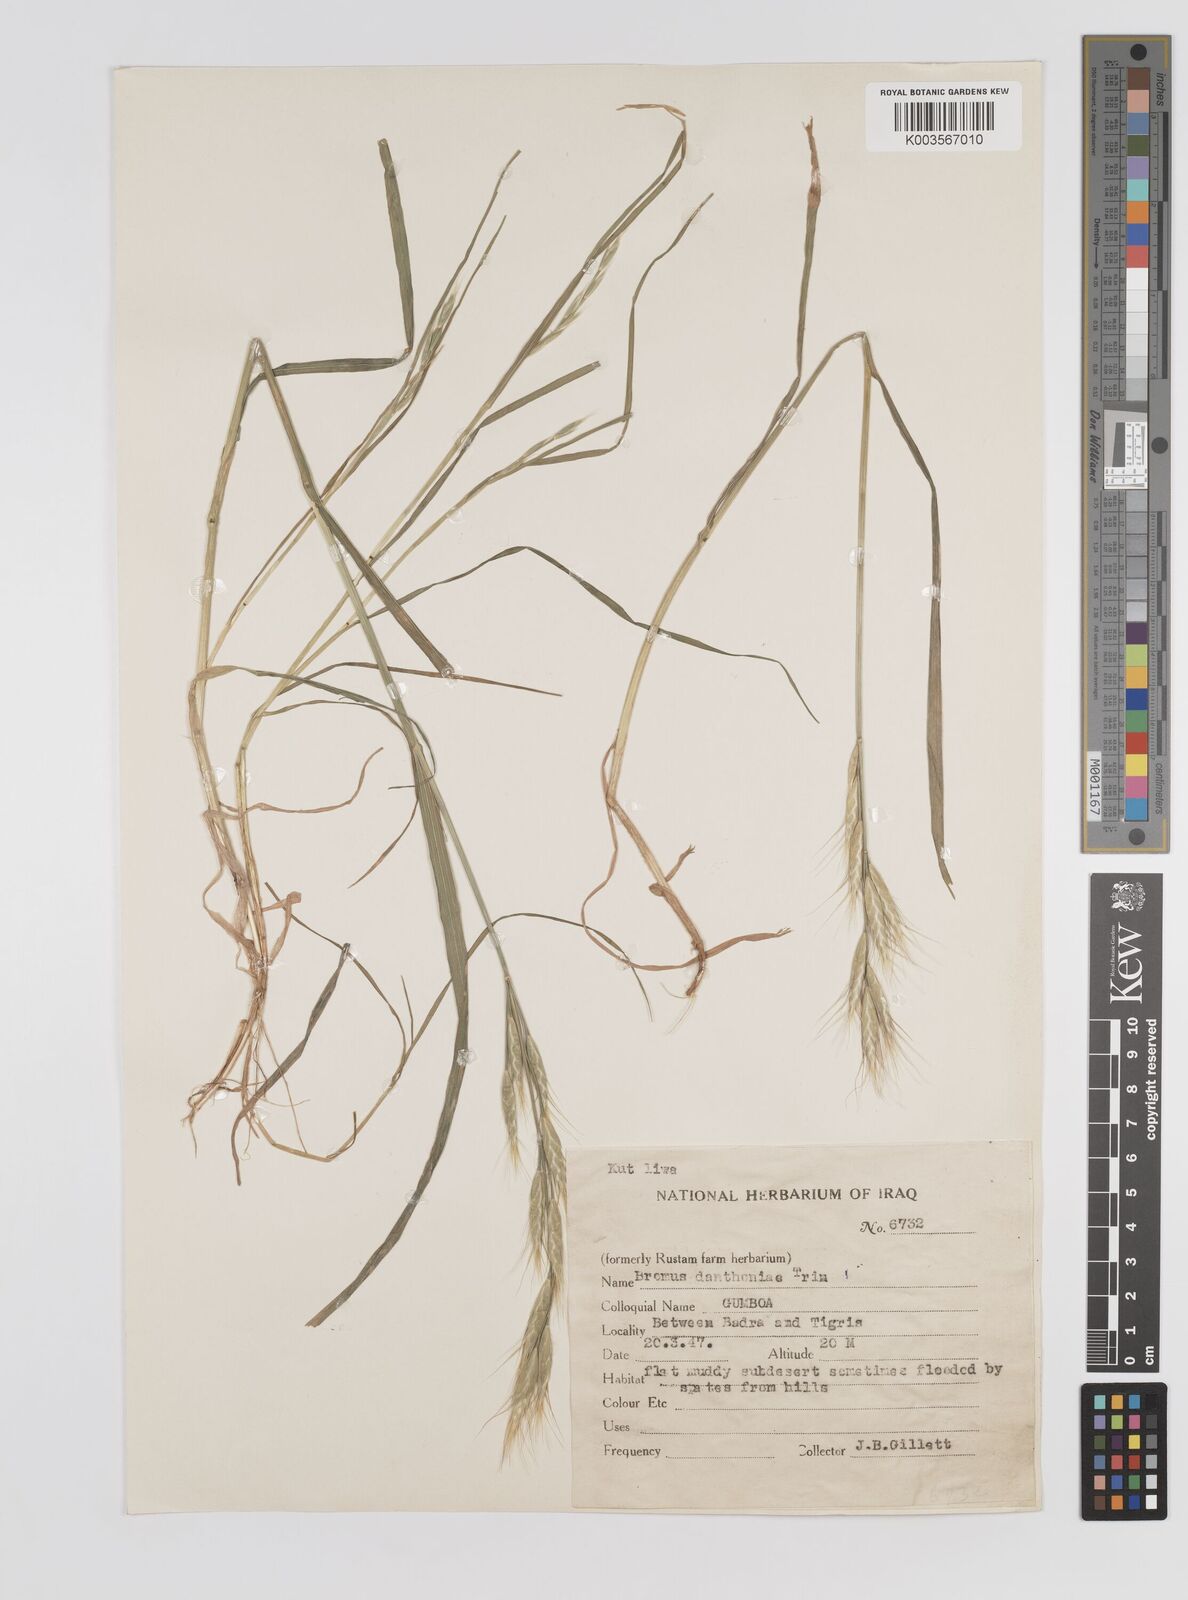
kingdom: Plantae
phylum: Tracheophyta
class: Liliopsida
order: Poales
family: Poaceae
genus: Bromus
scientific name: Bromus danthoniae
